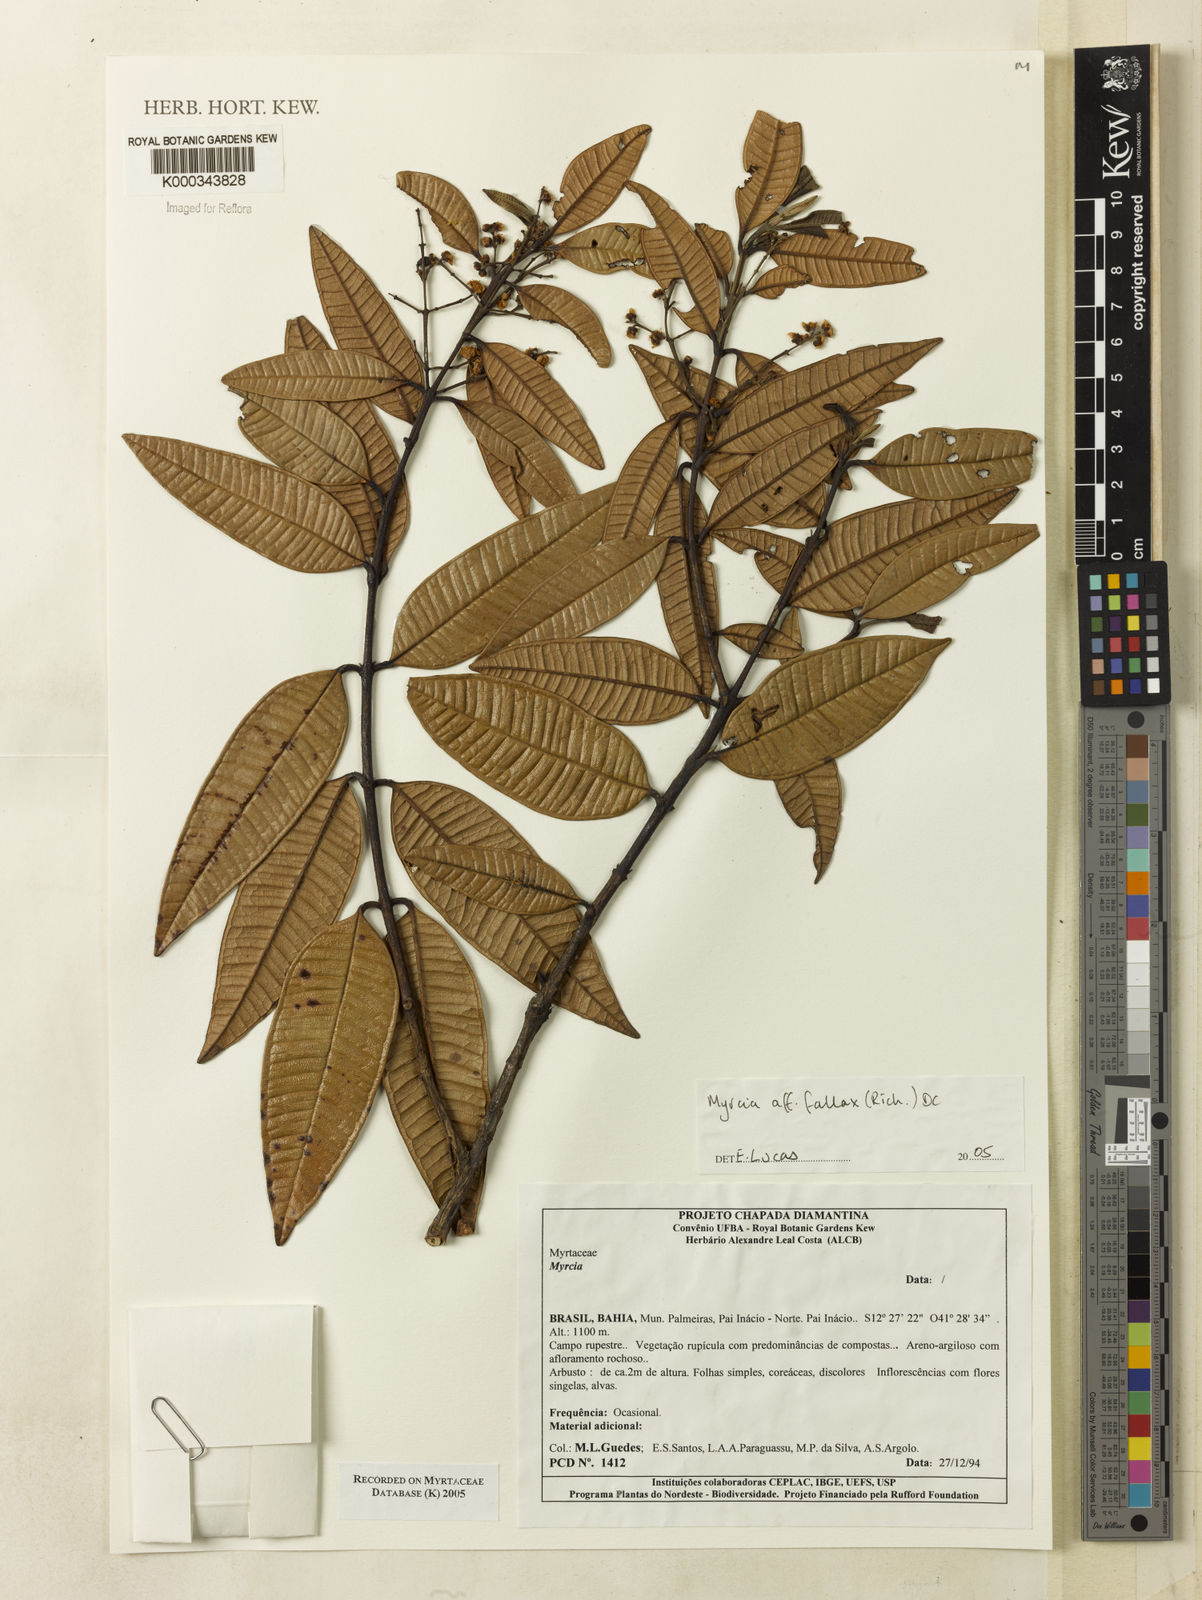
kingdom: Plantae
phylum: Tracheophyta
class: Magnoliopsida
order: Myrtales
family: Myrtaceae
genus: Myrcia
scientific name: Myrcia splendens
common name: Surinam cherry
